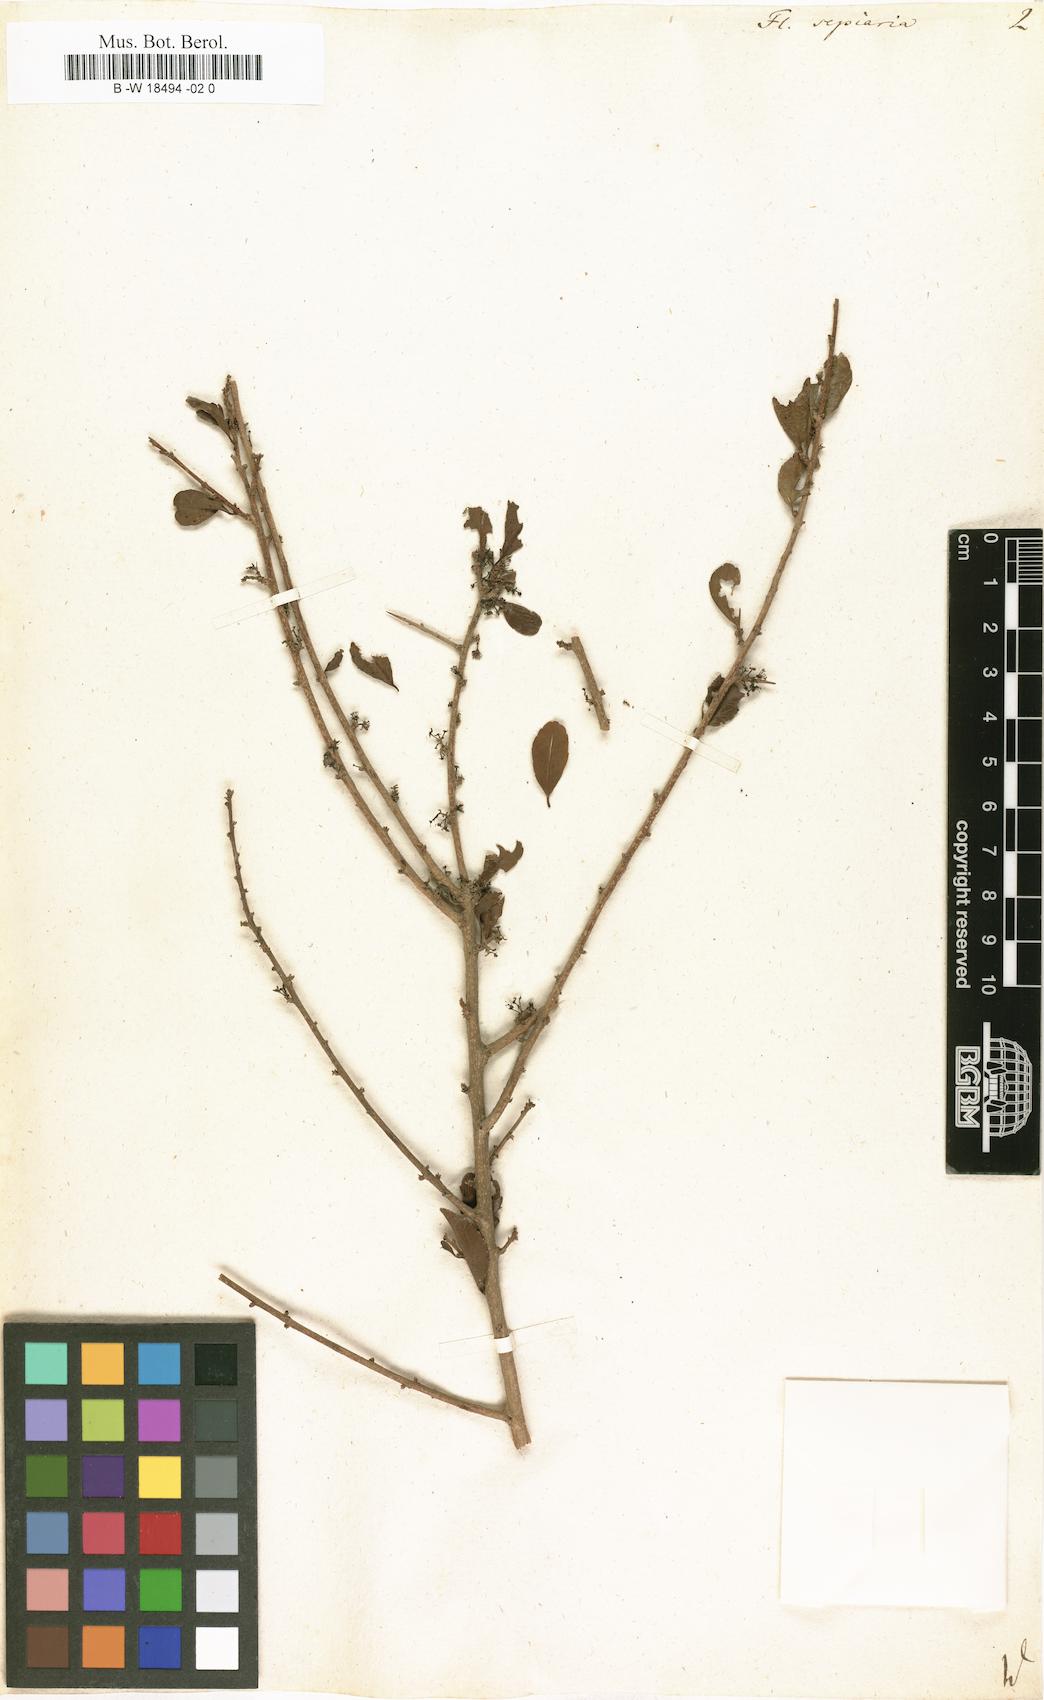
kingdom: Plantae
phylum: Tracheophyta
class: Magnoliopsida
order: Malpighiales
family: Salicaceae
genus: Flacourtia
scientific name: Flacourtia indica
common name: Governor's plum
